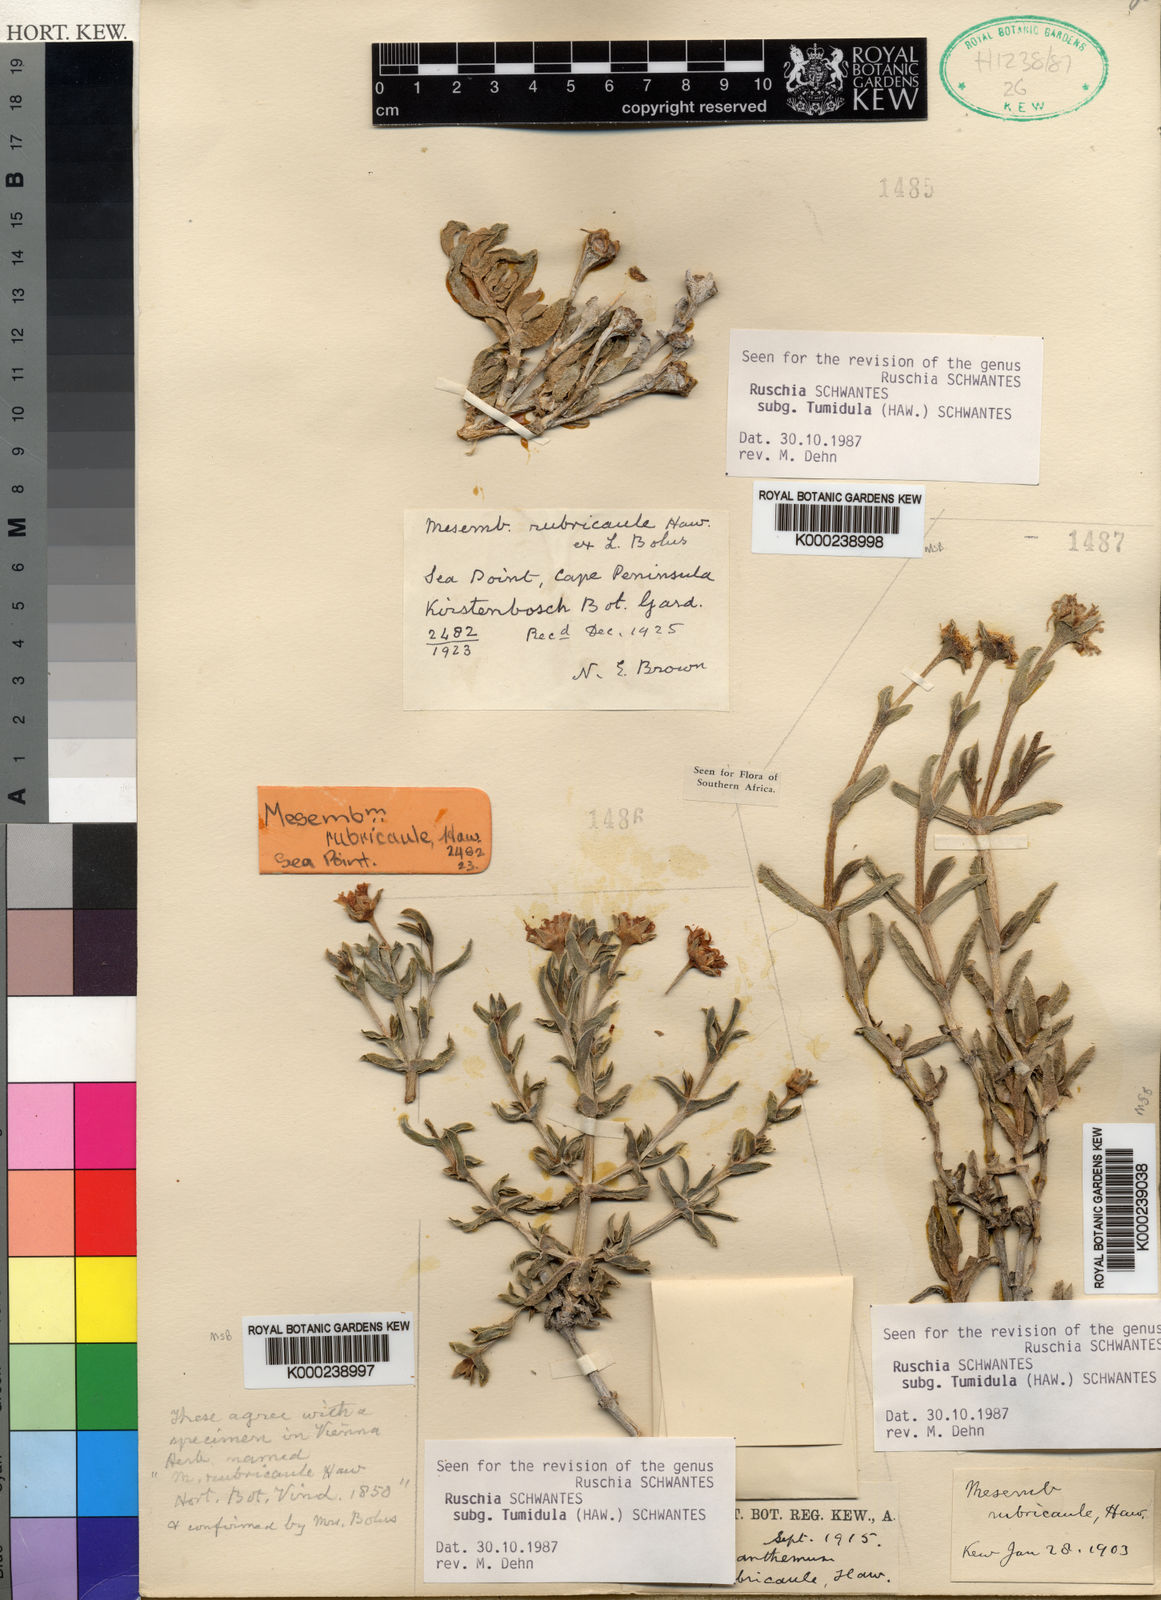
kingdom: Plantae
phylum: Tracheophyta
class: Magnoliopsida
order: Caryophyllales
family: Aizoaceae
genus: Ruschia
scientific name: Ruschia rubricaulis
